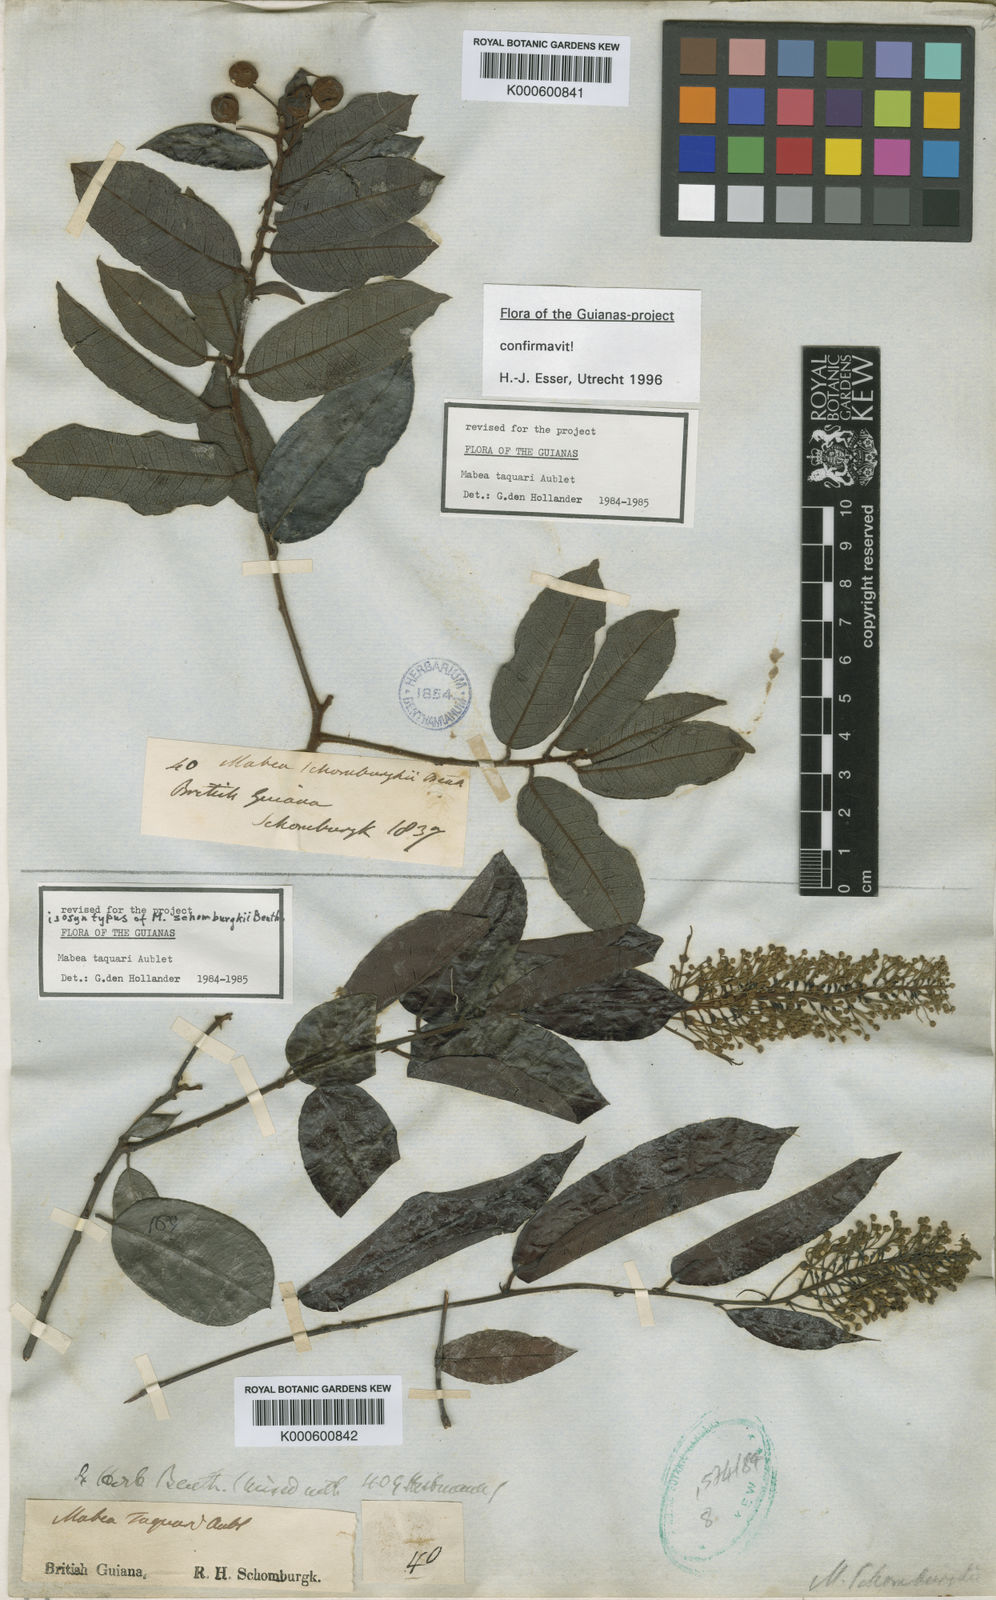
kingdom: Plantae
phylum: Tracheophyta
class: Magnoliopsida
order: Malpighiales
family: Euphorbiaceae
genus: Mabea
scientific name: Mabea taquari
